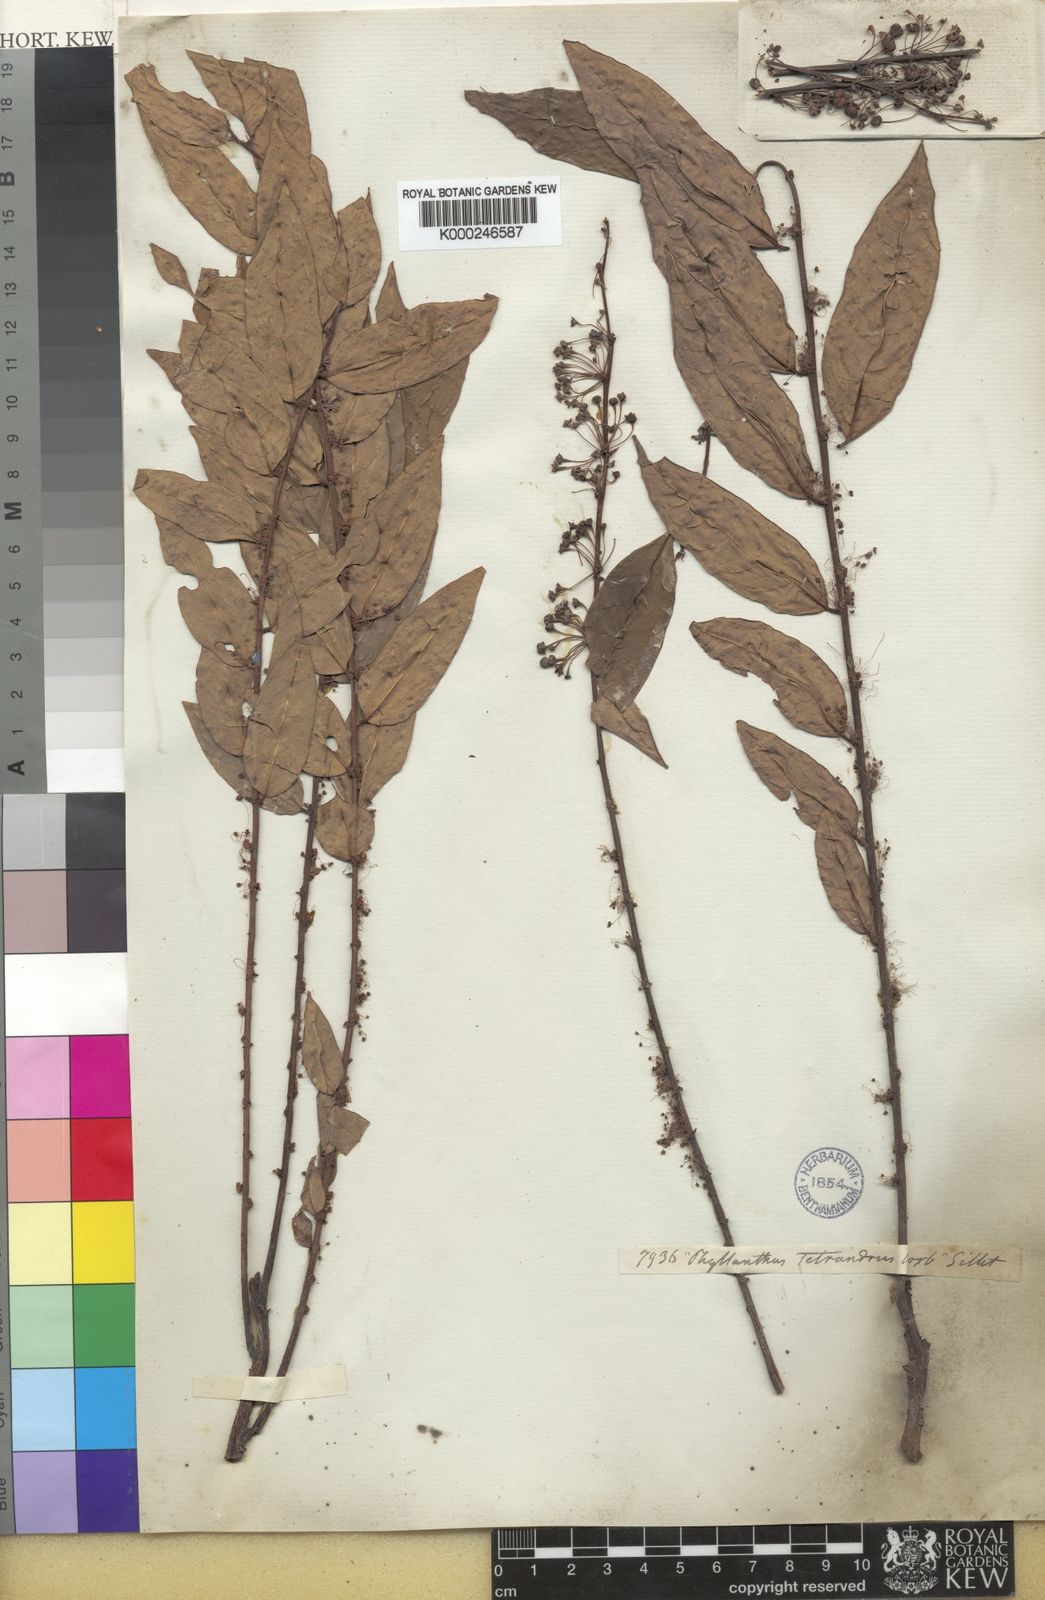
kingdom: Plantae
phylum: Tracheophyta
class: Magnoliopsida
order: Malpighiales
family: Phyllanthaceae
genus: Phyllanthus
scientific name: Phyllanthus tetrandrus
